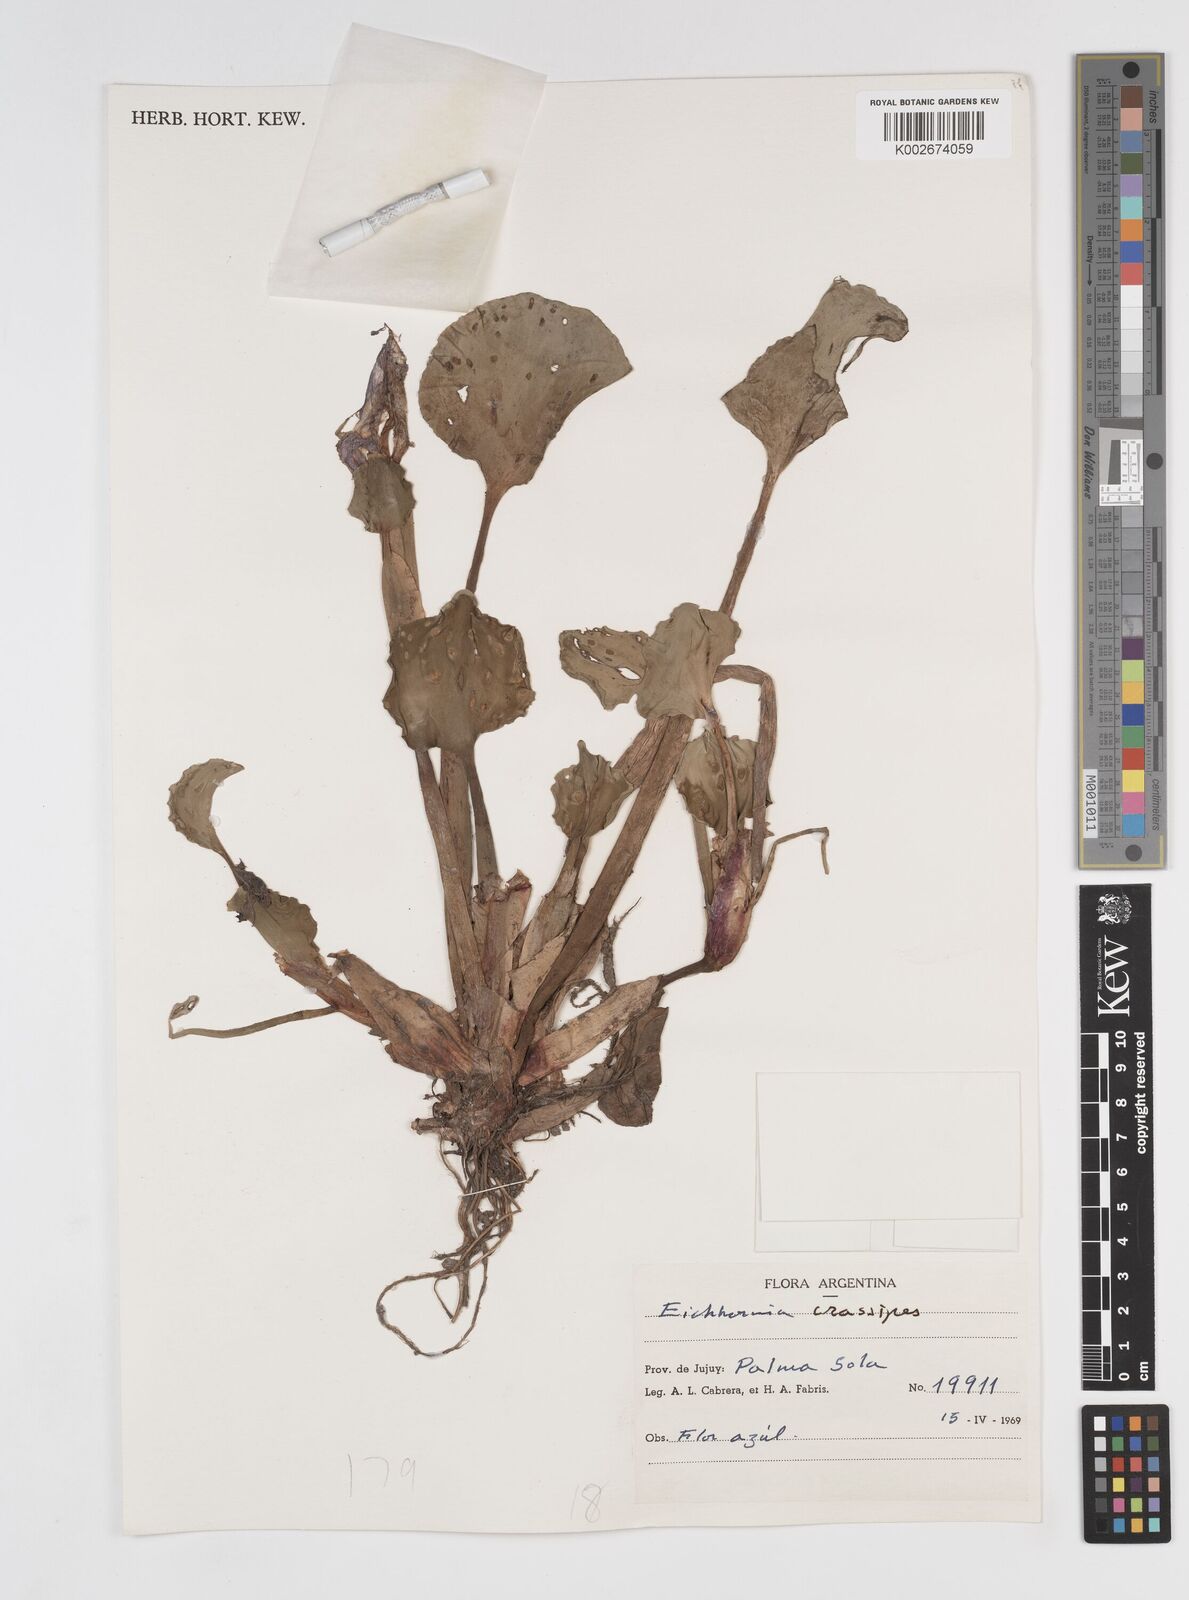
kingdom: Plantae
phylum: Tracheophyta
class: Liliopsida
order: Commelinales
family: Pontederiaceae
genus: Pontederia
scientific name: Pontederia crassipes
